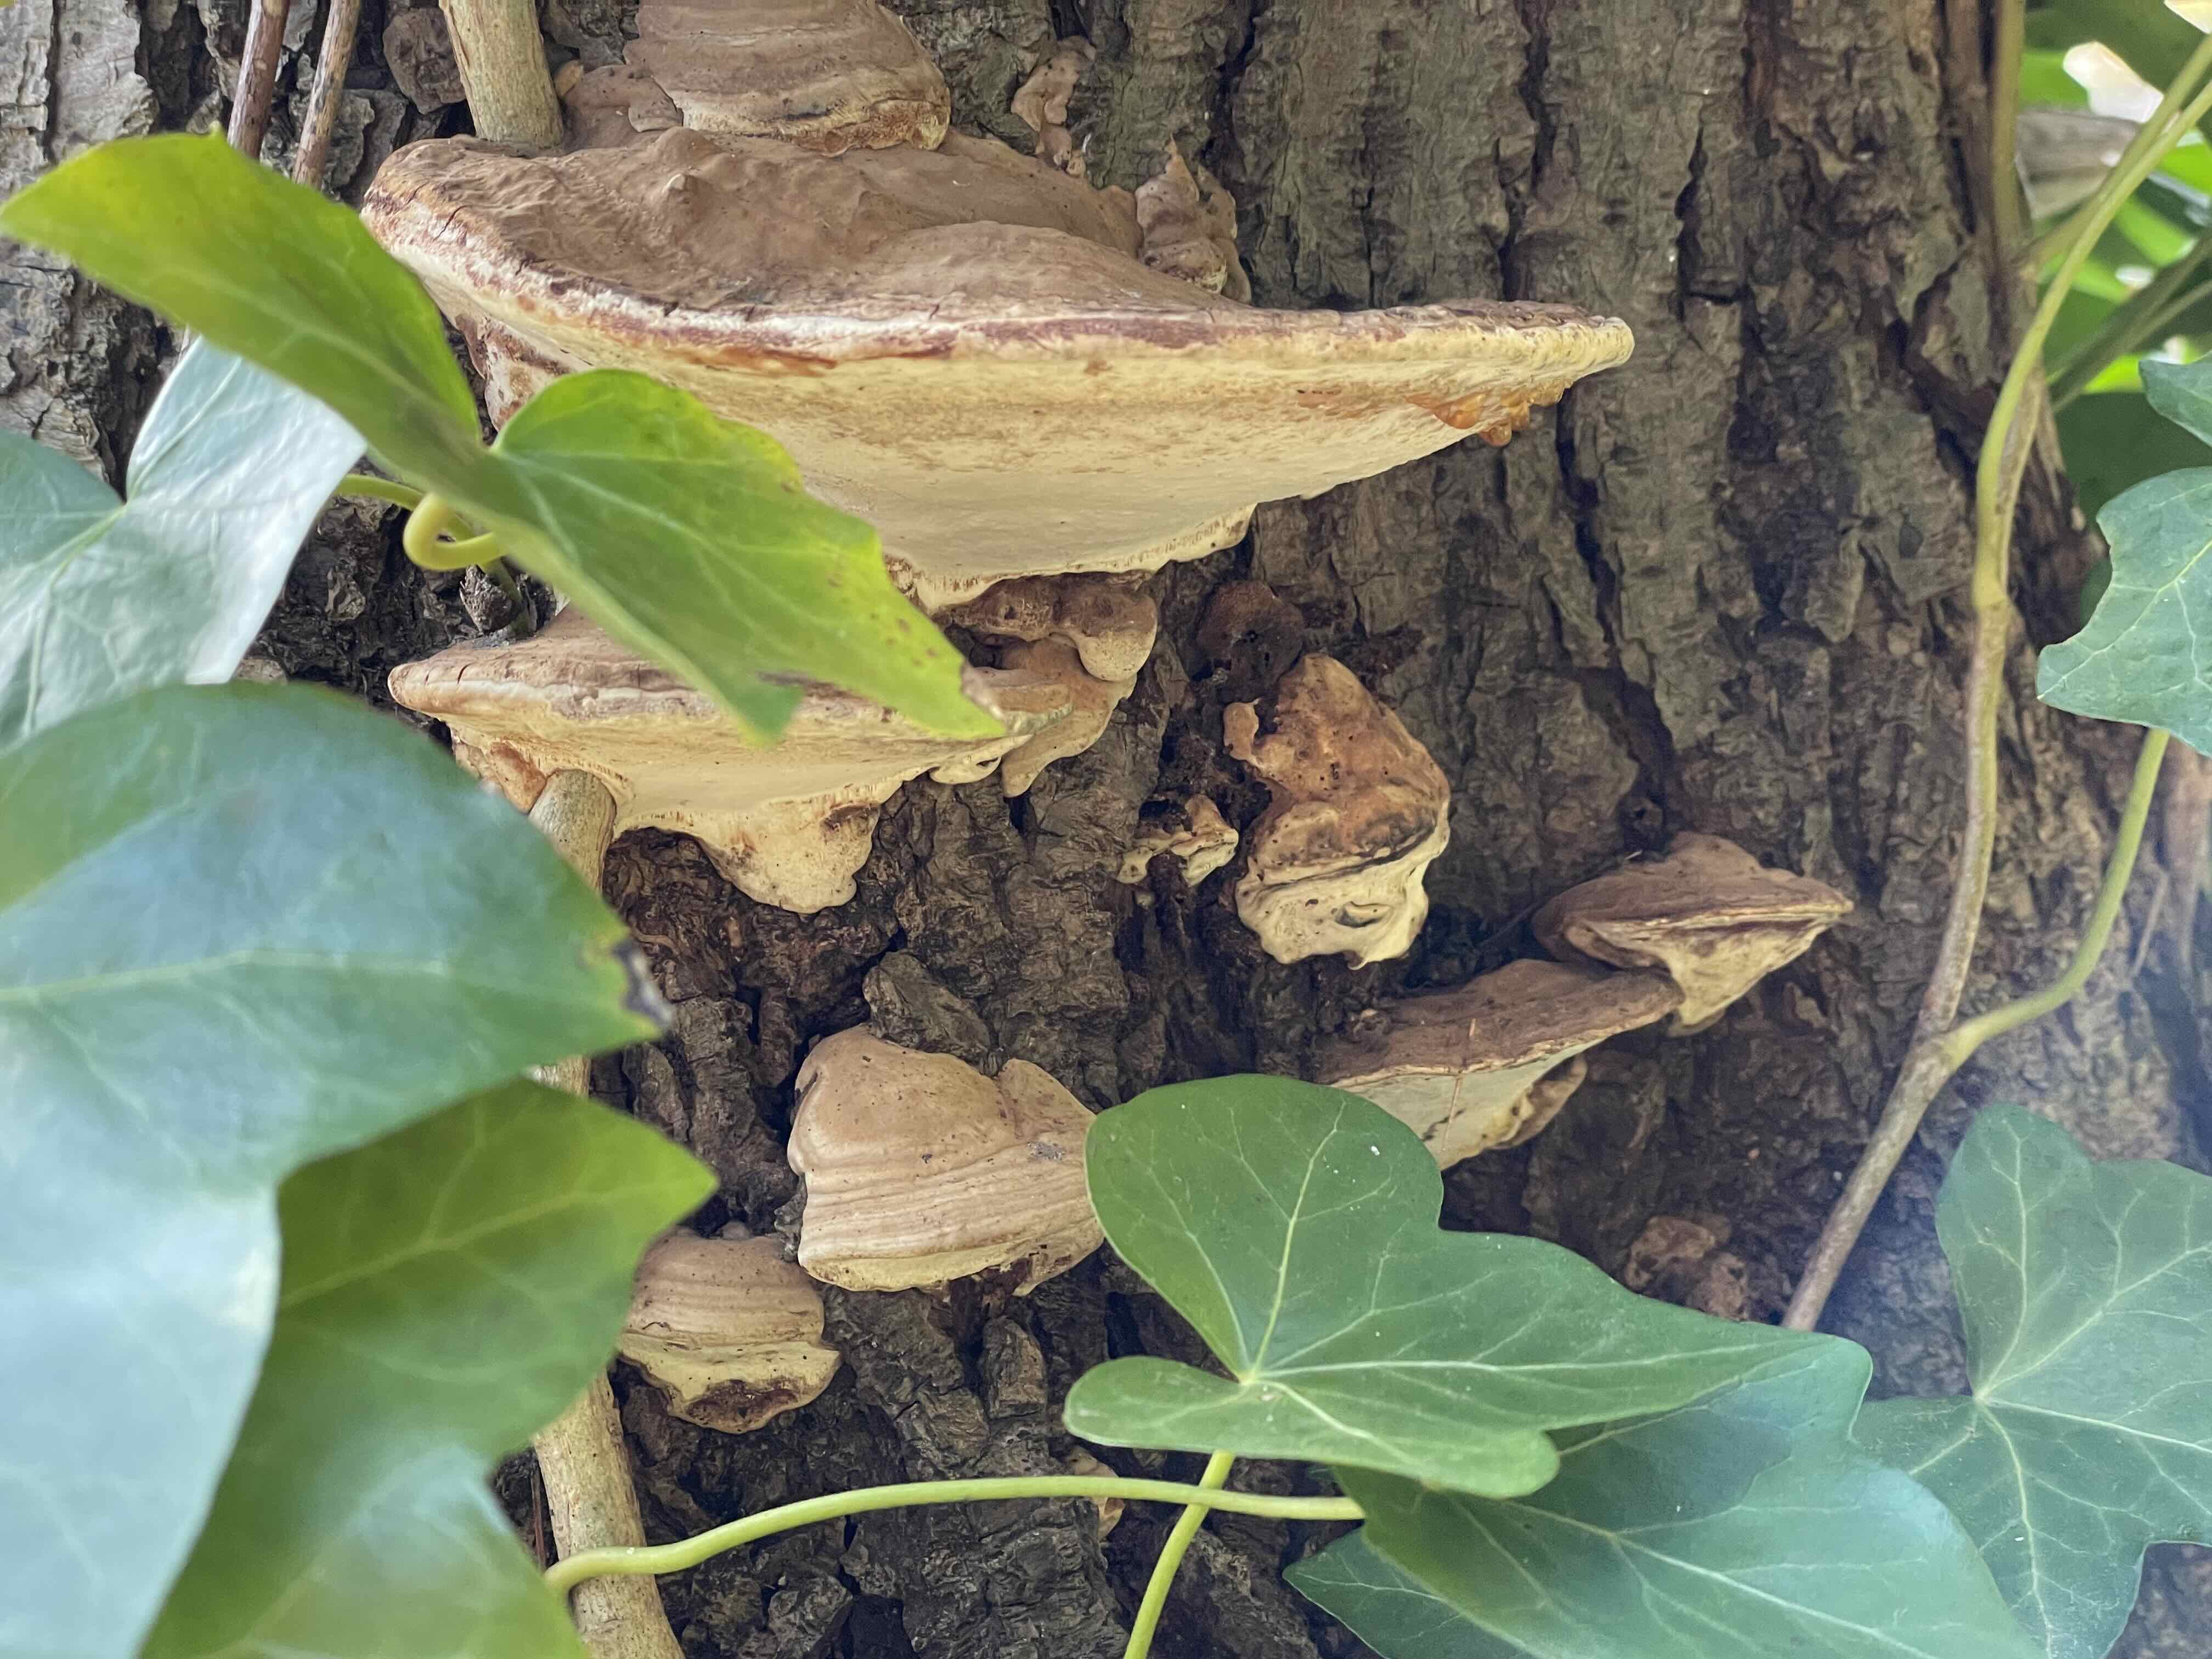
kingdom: Fungi
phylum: Basidiomycota
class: Agaricomycetes
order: Polyporales
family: Polyporaceae
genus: Ganoderma
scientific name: Ganoderma applanatum
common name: flad lakporesvamp
